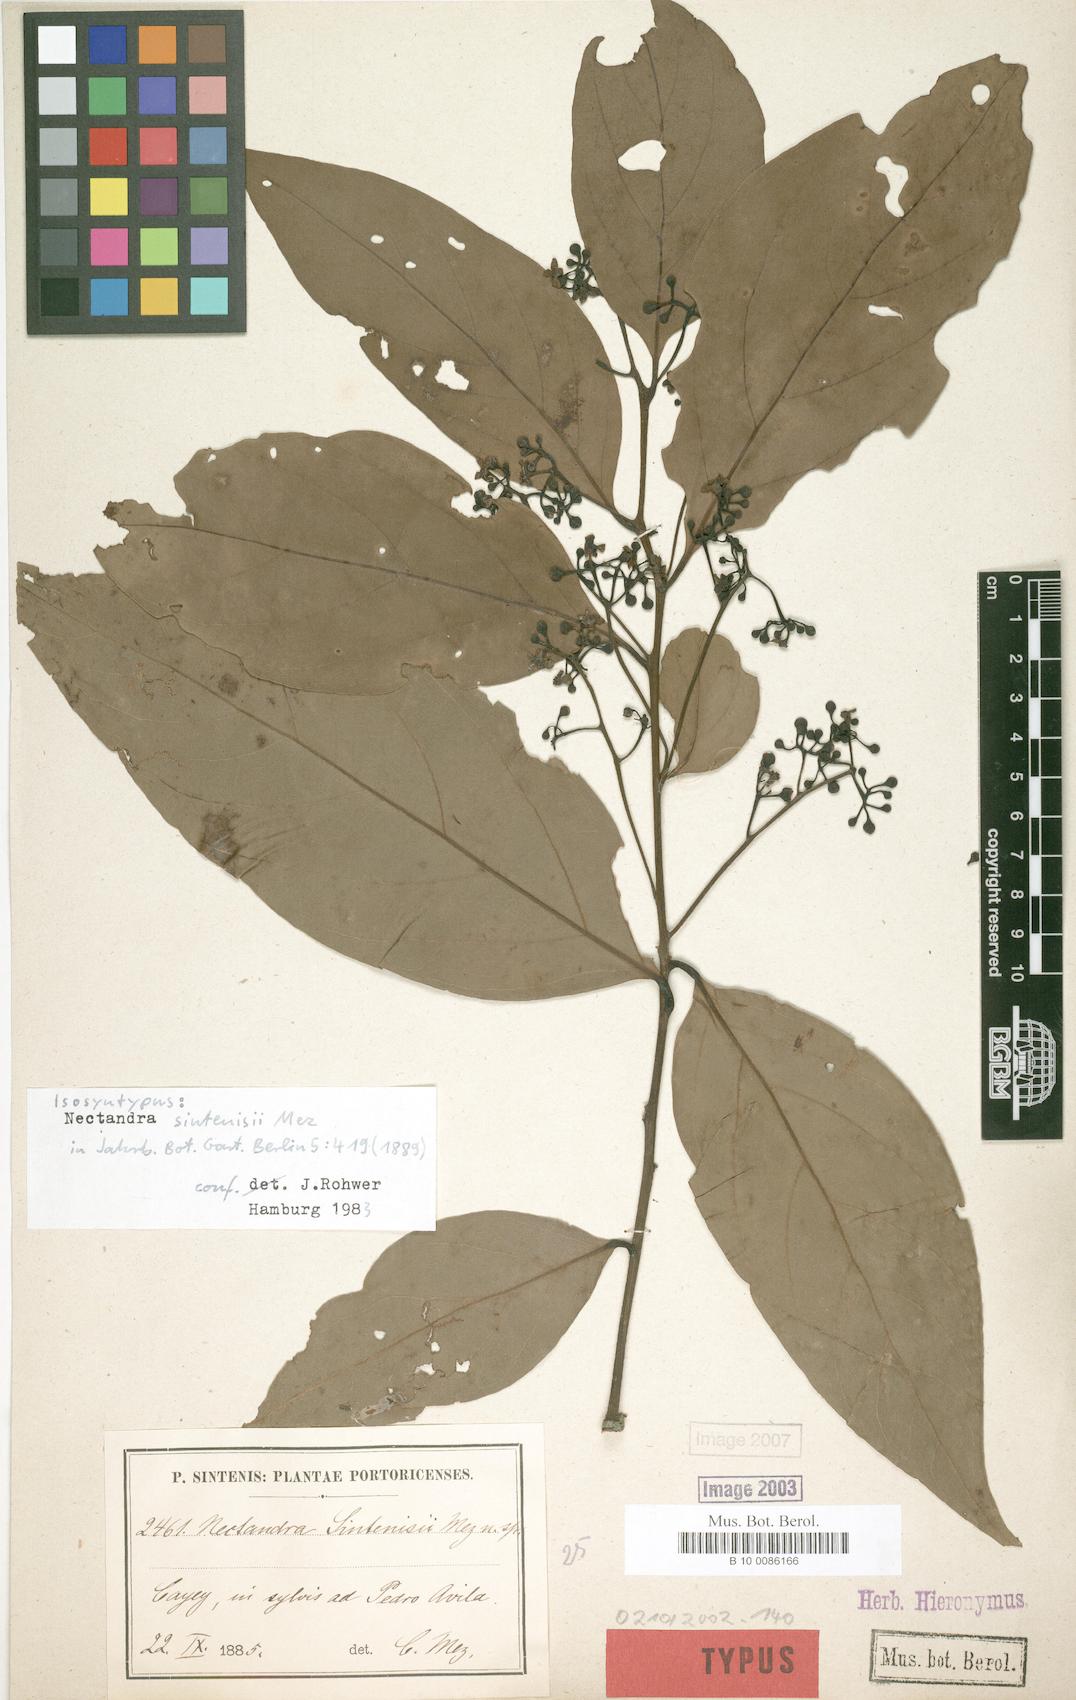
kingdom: Plantae
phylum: Tracheophyta
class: Magnoliopsida
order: Laurales
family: Lauraceae
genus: Nectandra
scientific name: Nectandra turbacensis
